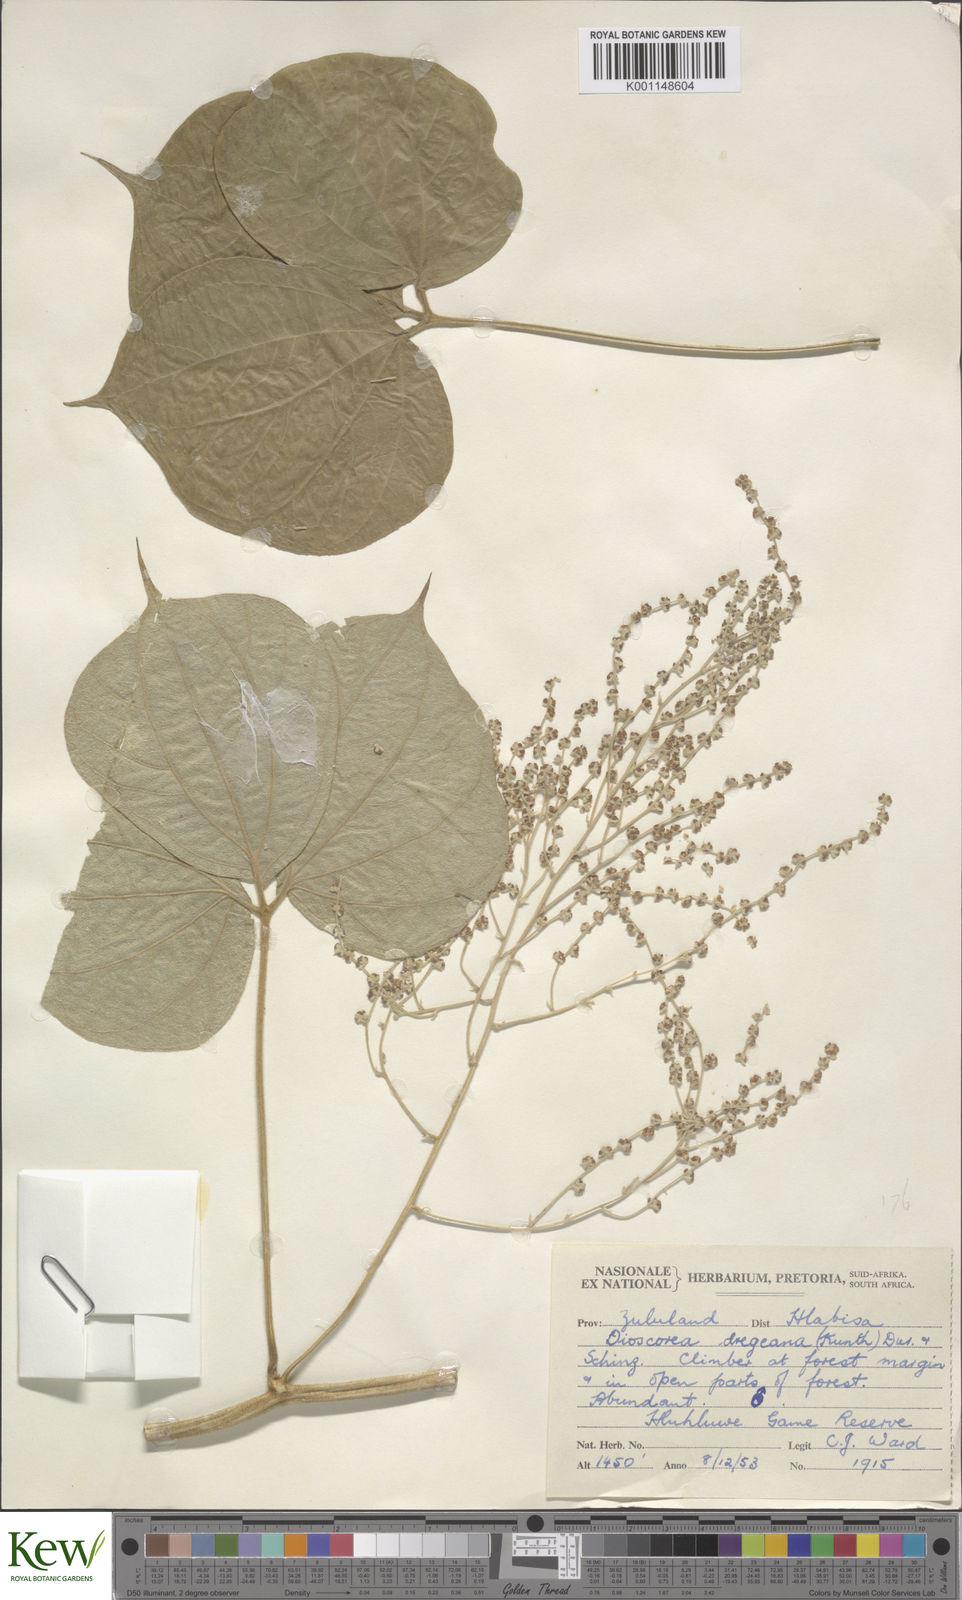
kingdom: Plantae
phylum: Tracheophyta
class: Liliopsida
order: Dioscoreales
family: Dioscoreaceae
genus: Dioscorea
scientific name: Dioscorea dregeana
